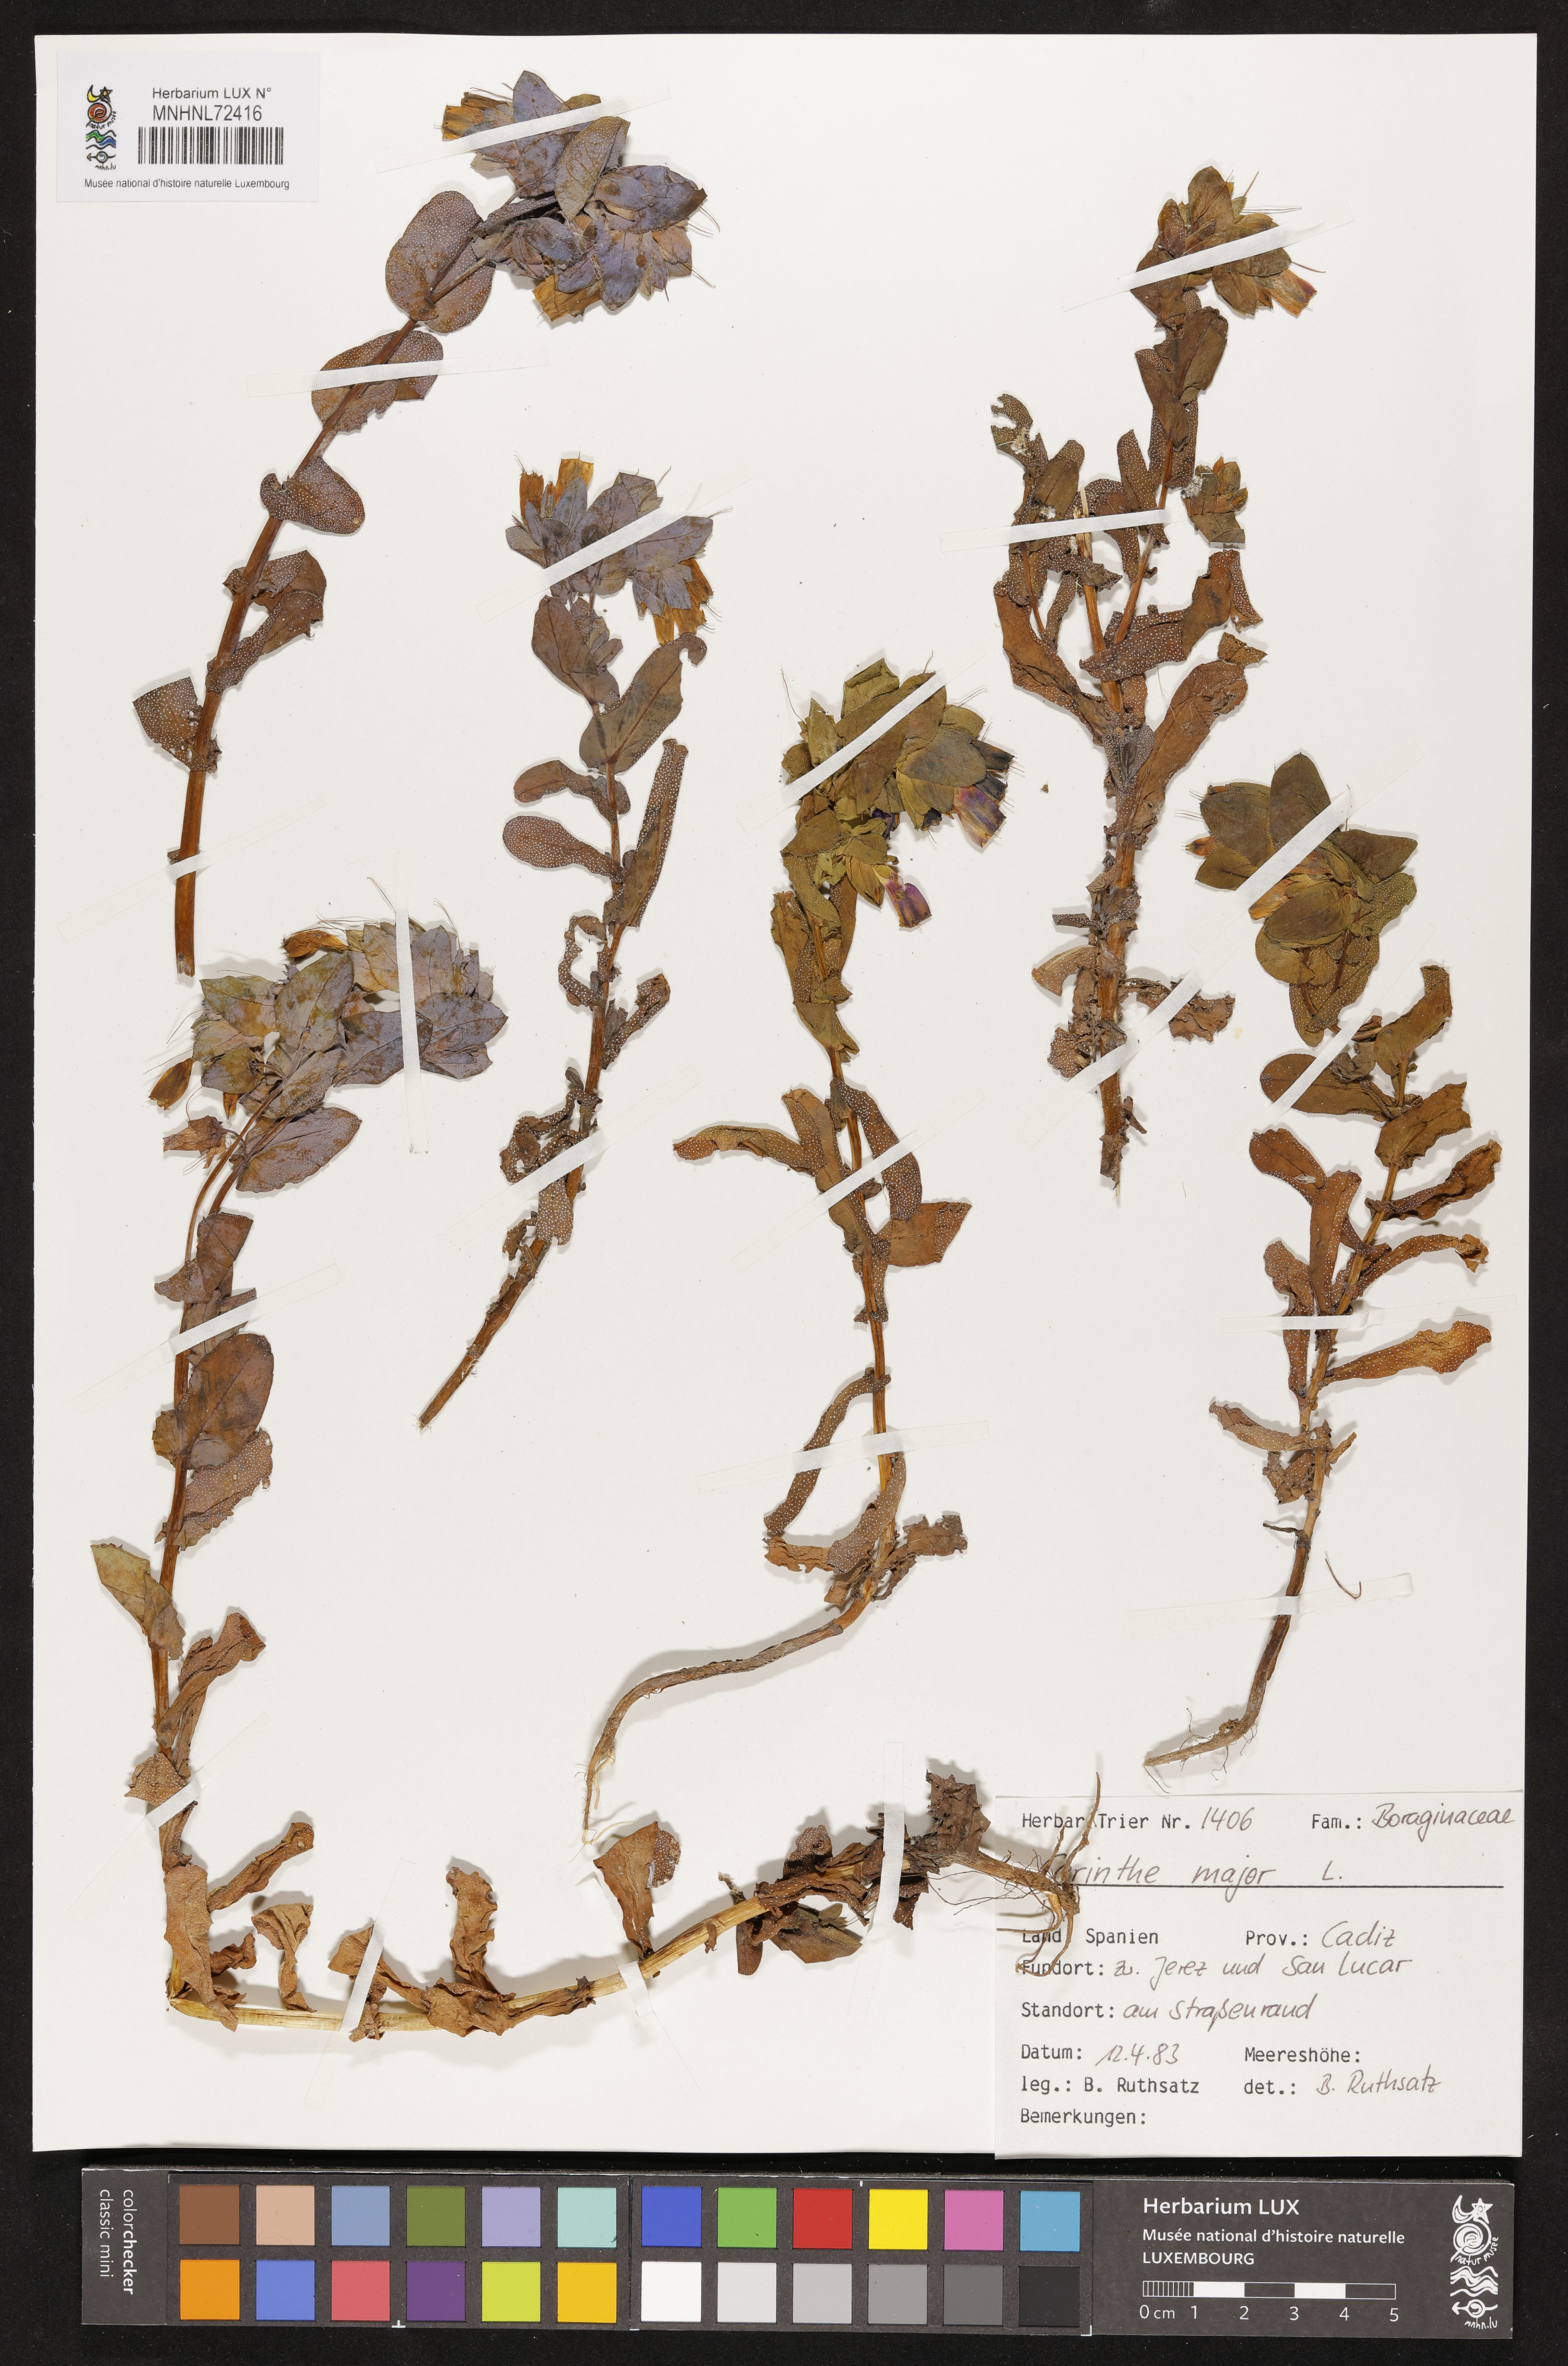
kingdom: Plantae
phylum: Tracheophyta
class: Magnoliopsida
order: Boraginales
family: Boraginaceae
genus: Cerinthe
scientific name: Cerinthe major
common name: Greater honeywort
